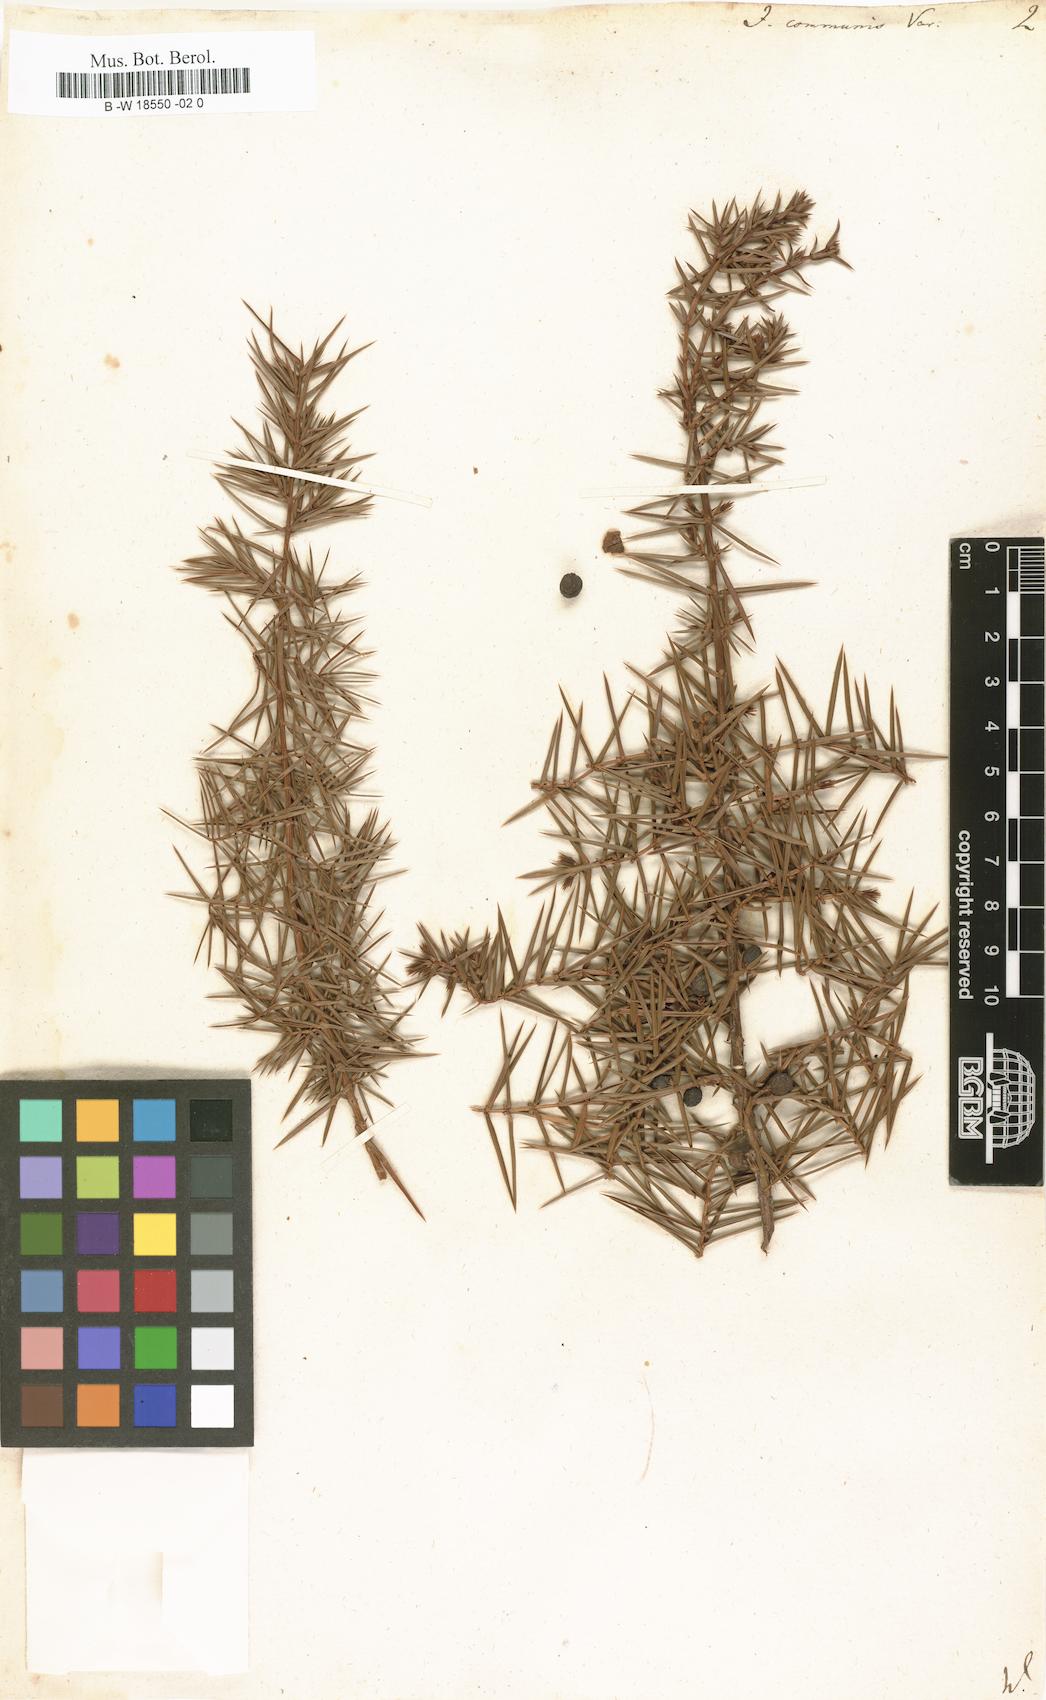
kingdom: Plantae
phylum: Tracheophyta
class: Pinopsida
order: Pinales
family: Cupressaceae
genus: Juniperus
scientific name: Juniperus communis
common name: Common juniper
